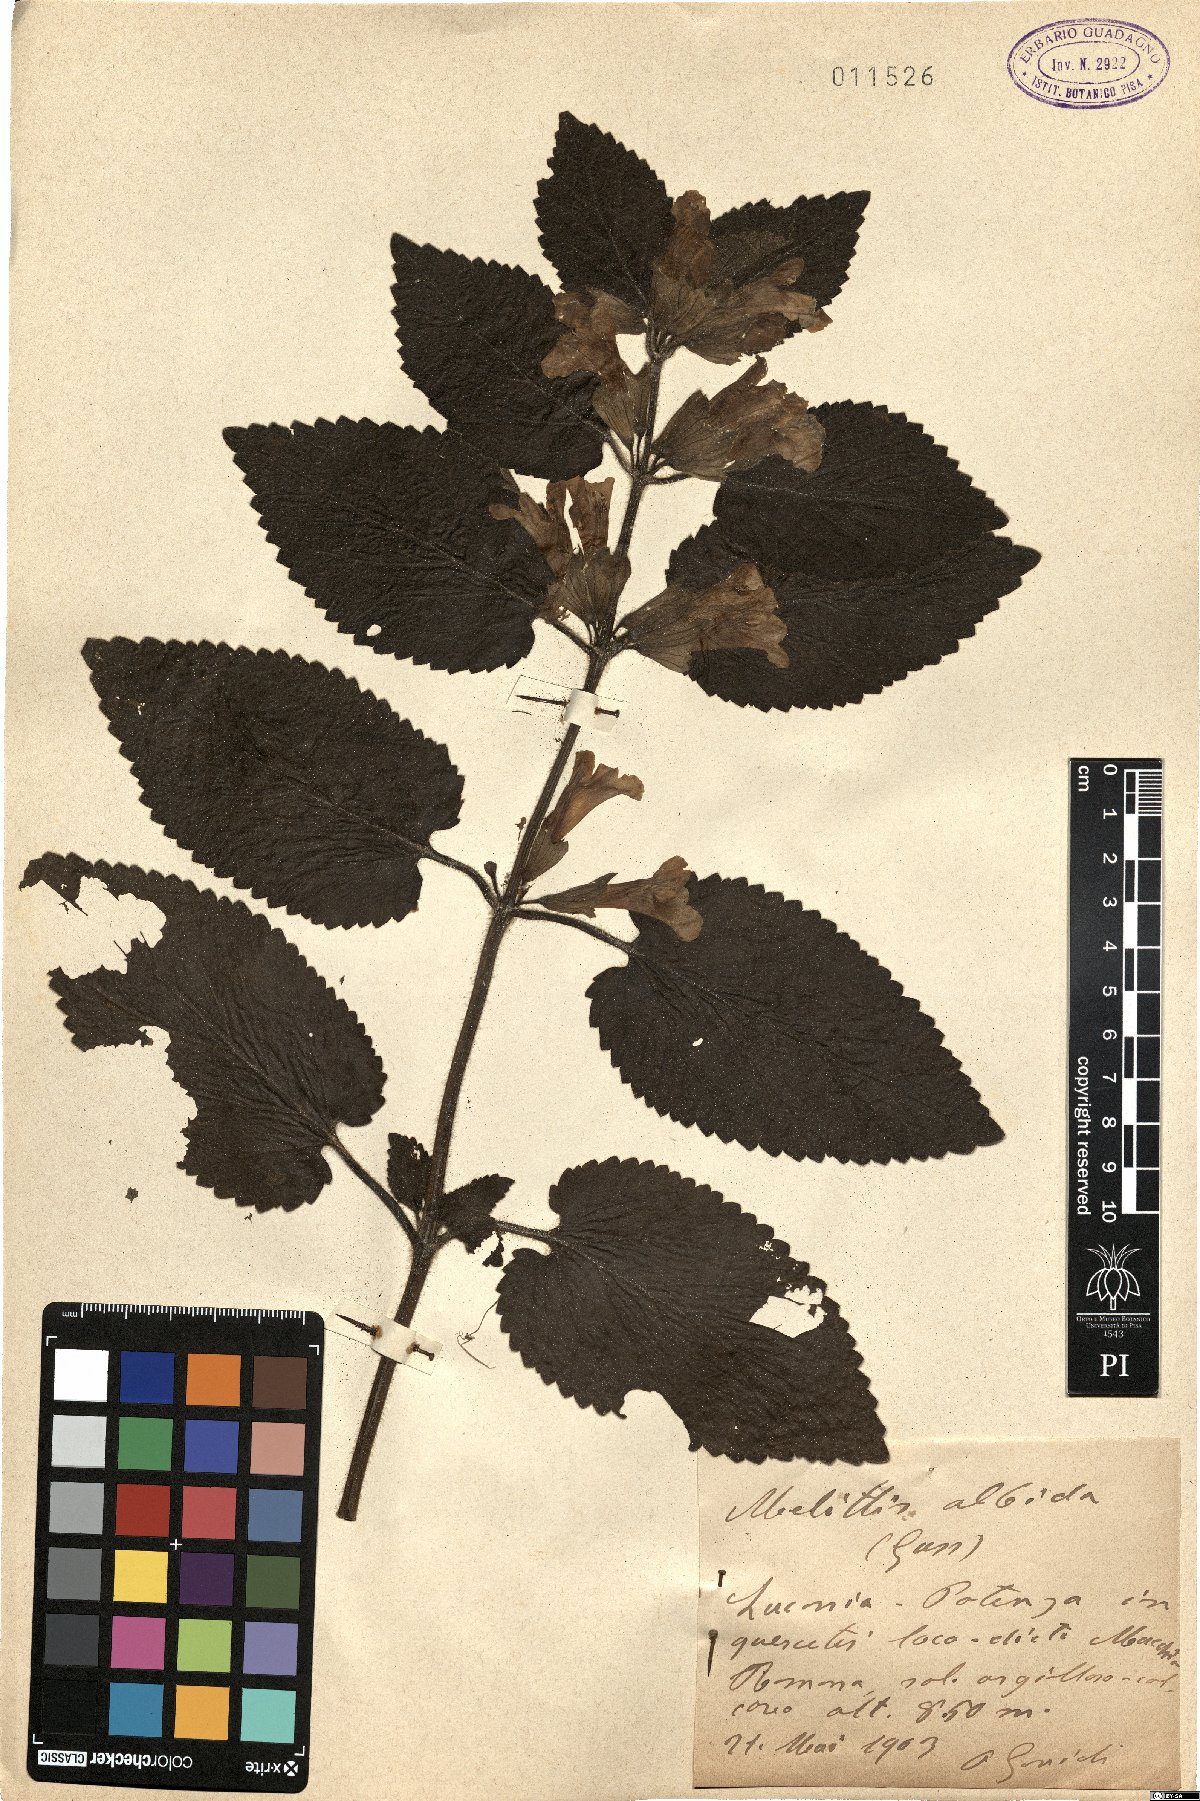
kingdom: Plantae
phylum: Tracheophyta
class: Magnoliopsida
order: Lamiales
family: Lamiaceae
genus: Melittis
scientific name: Melittis melissophyllum
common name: Bastard balm
